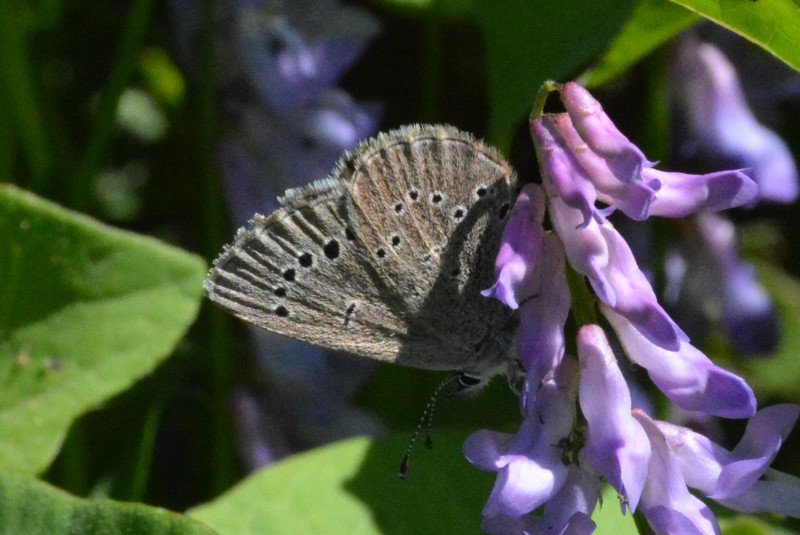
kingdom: Animalia
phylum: Arthropoda
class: Insecta
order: Lepidoptera
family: Lycaenidae
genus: Glaucopsyche
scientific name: Glaucopsyche lygdamus
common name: Silvery Blue
